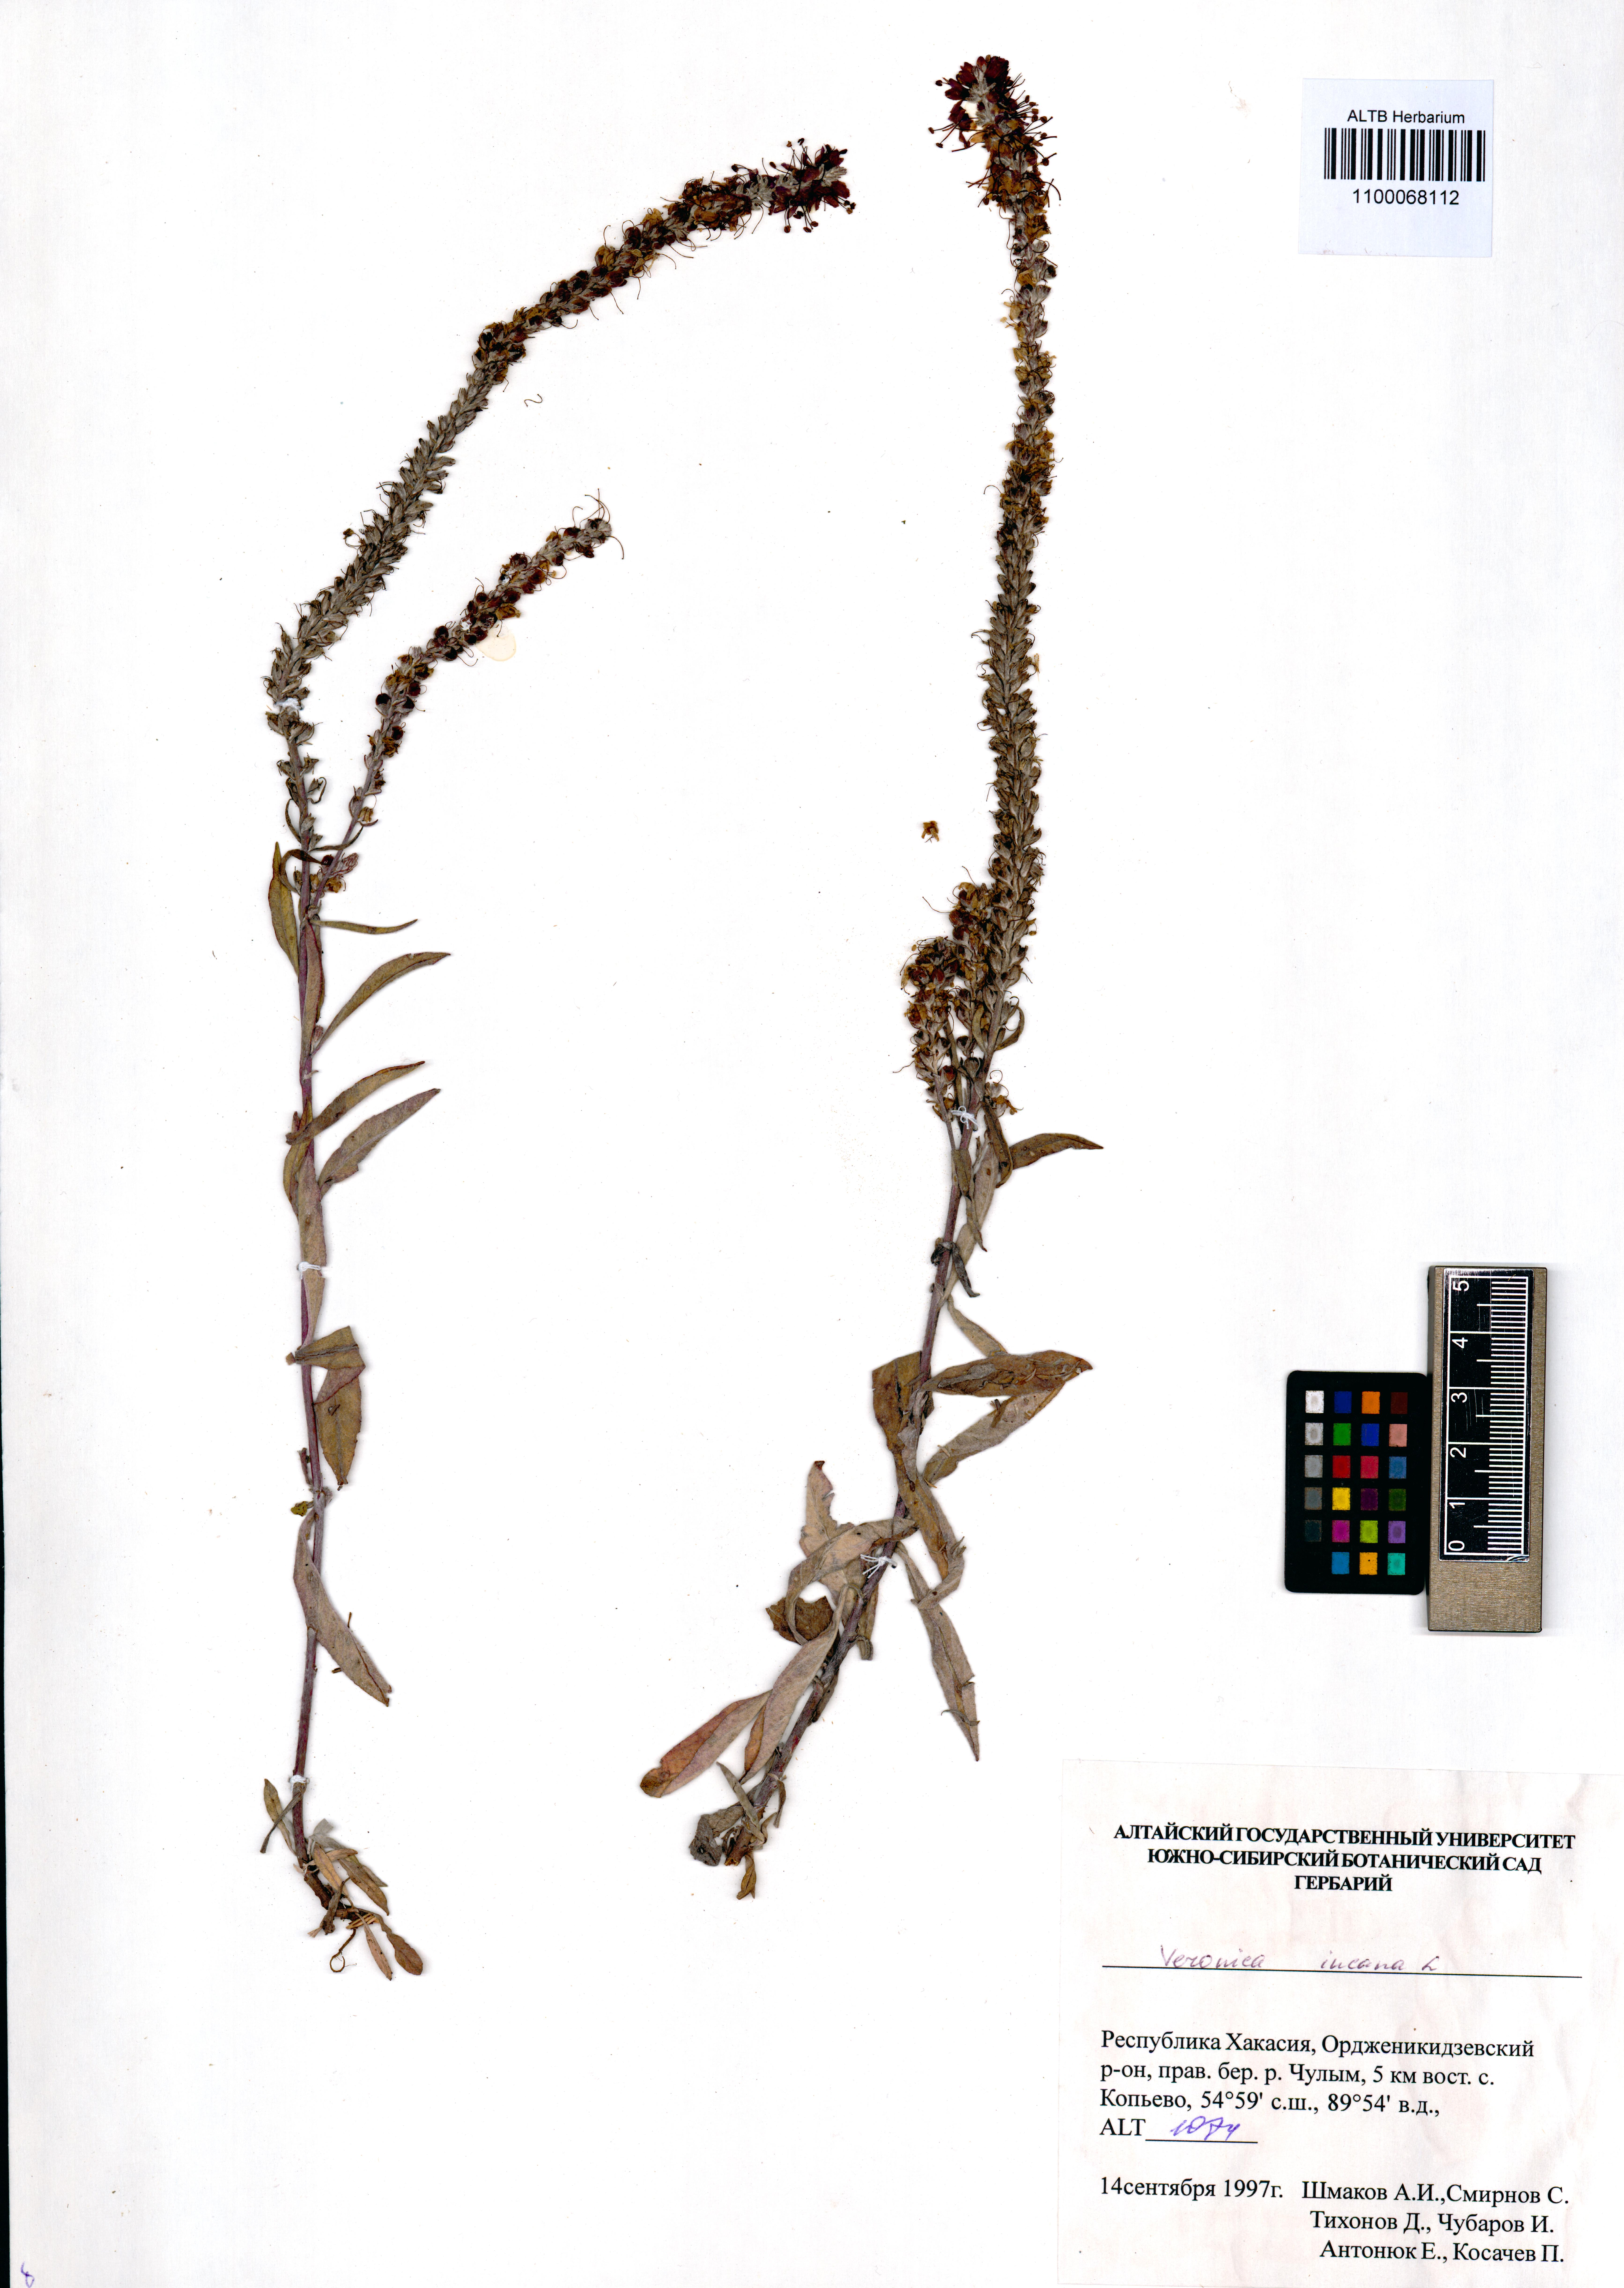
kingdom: Plantae
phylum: Tracheophyta
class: Magnoliopsida
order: Lamiales
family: Plantaginaceae
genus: Veronica
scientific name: Veronica incana
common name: Silver speedwell
